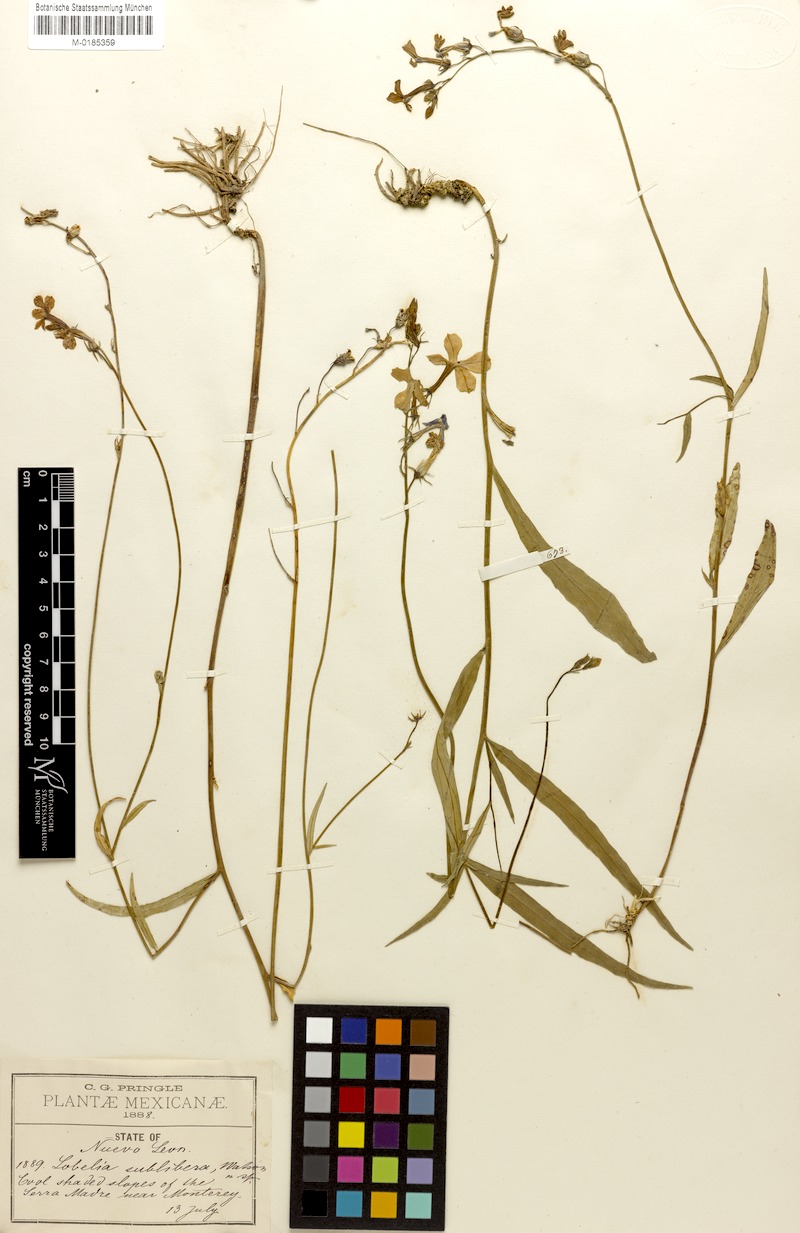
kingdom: Plantae
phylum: Tracheophyta
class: Magnoliopsida
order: Asterales
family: Campanulaceae
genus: Lobelia
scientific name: Lobelia sublibera
